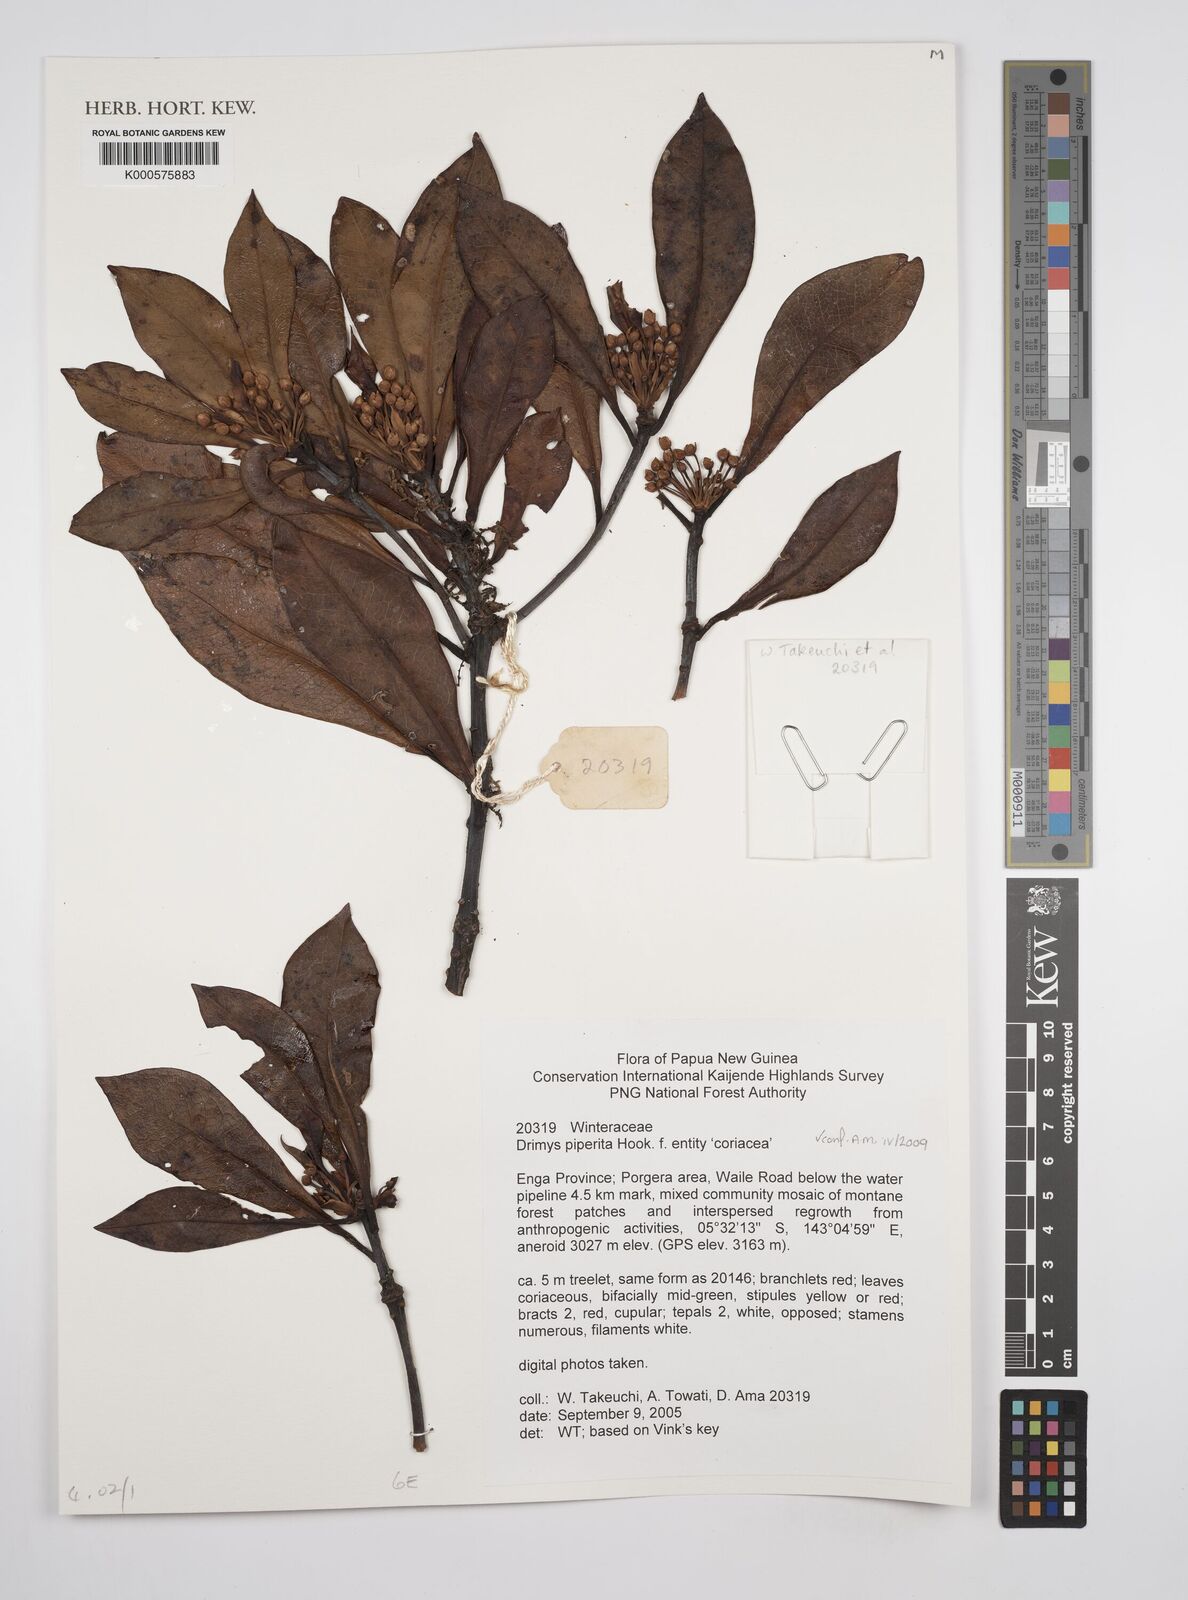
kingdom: Plantae
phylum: Tracheophyta
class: Magnoliopsida
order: Canellales
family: Winteraceae
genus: Drimys
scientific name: Drimys piperita
